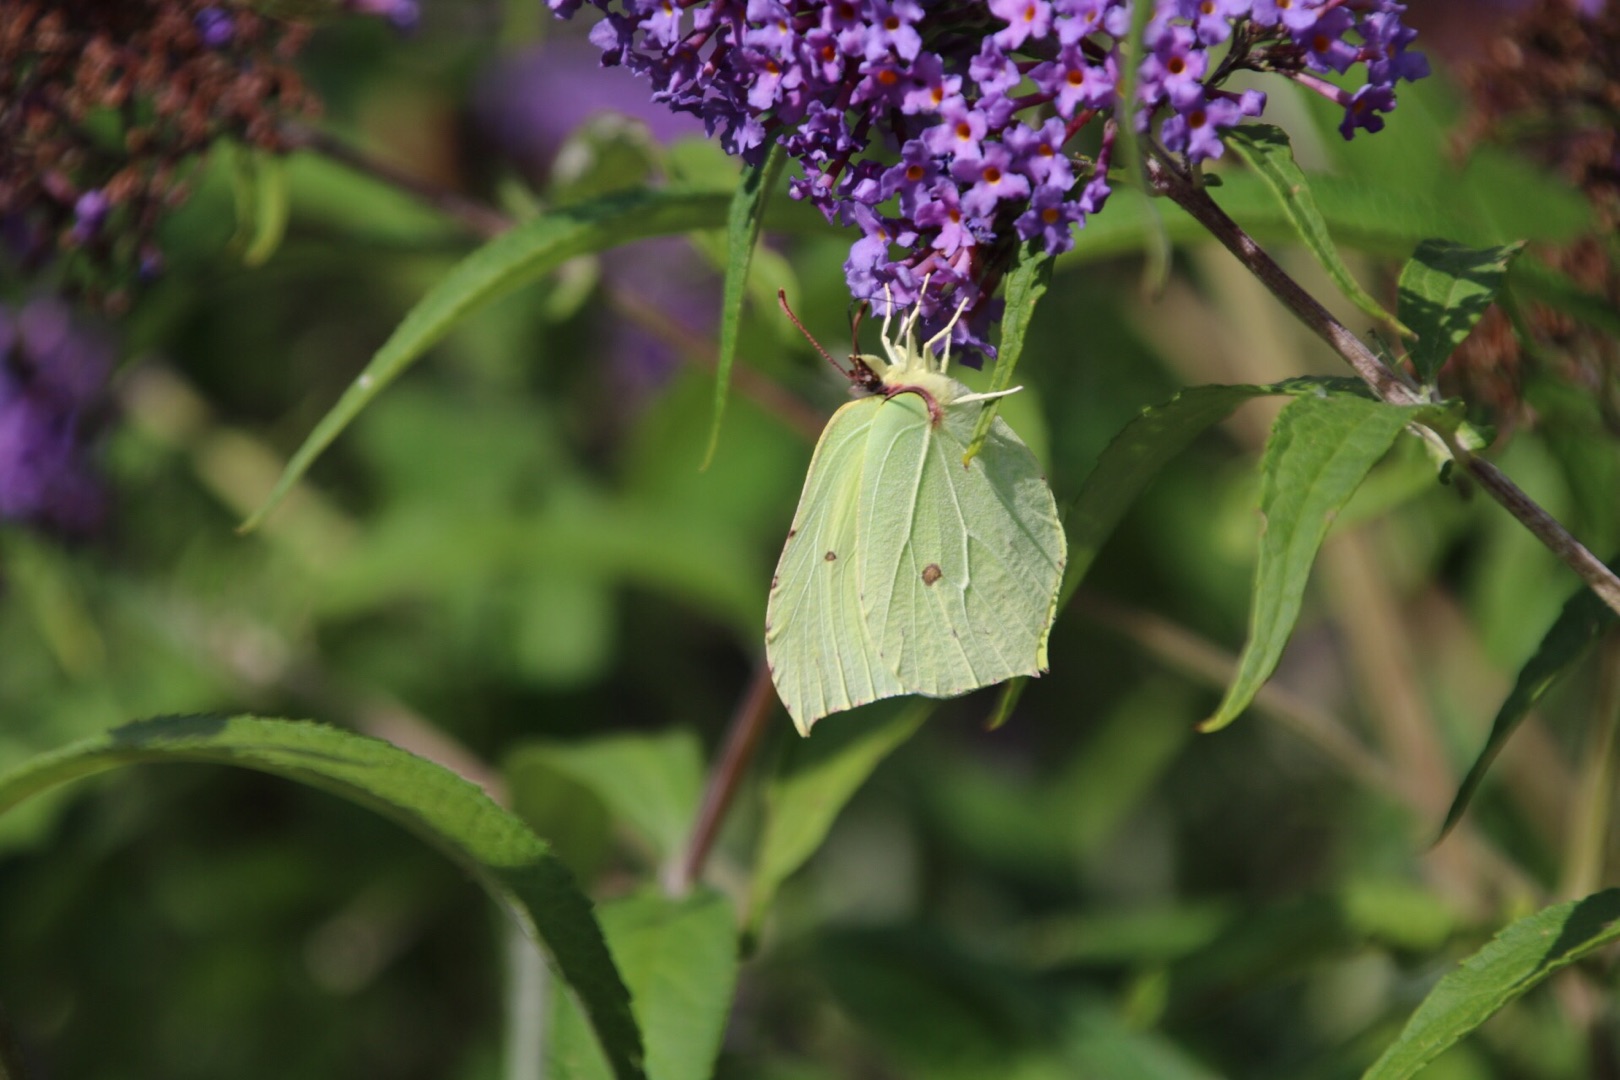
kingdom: Animalia
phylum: Arthropoda
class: Insecta
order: Lepidoptera
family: Pieridae
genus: Gonepteryx
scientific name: Gonepteryx rhamni
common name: Citronsommerfugl
